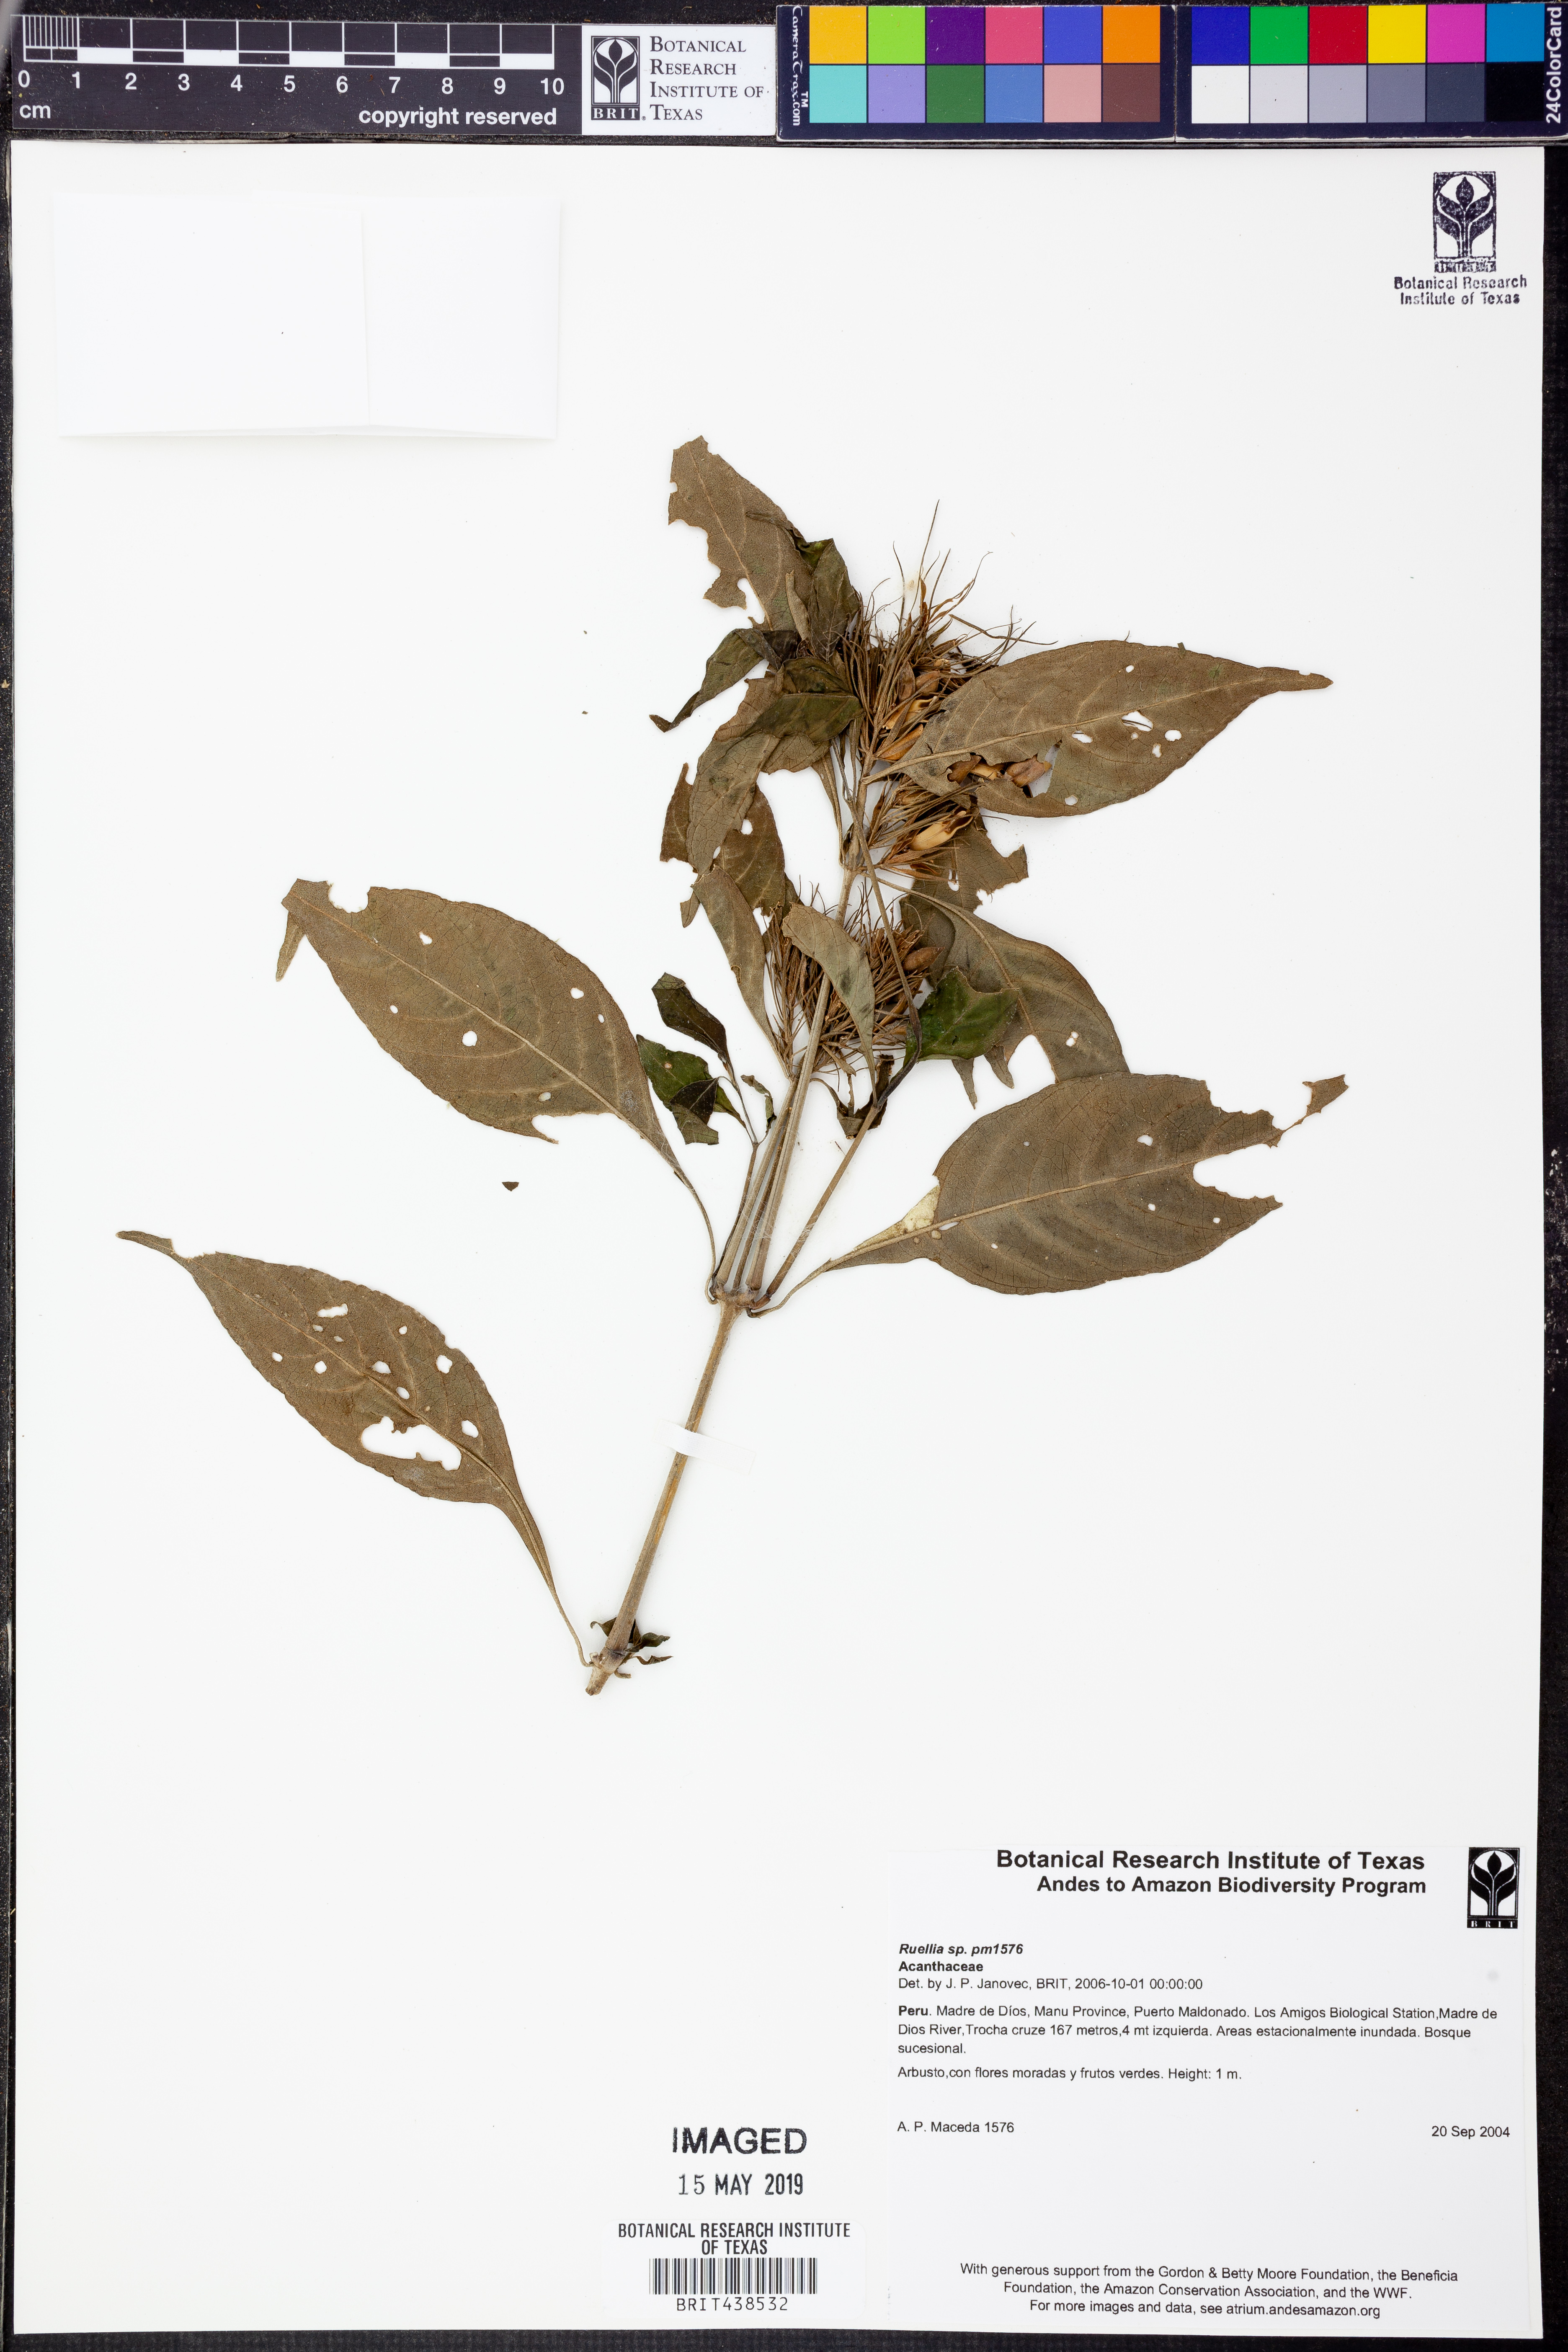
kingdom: Plantae
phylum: Tracheophyta
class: Magnoliopsida
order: Lamiales
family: Acanthaceae
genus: Ruellia
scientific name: Ruellia
